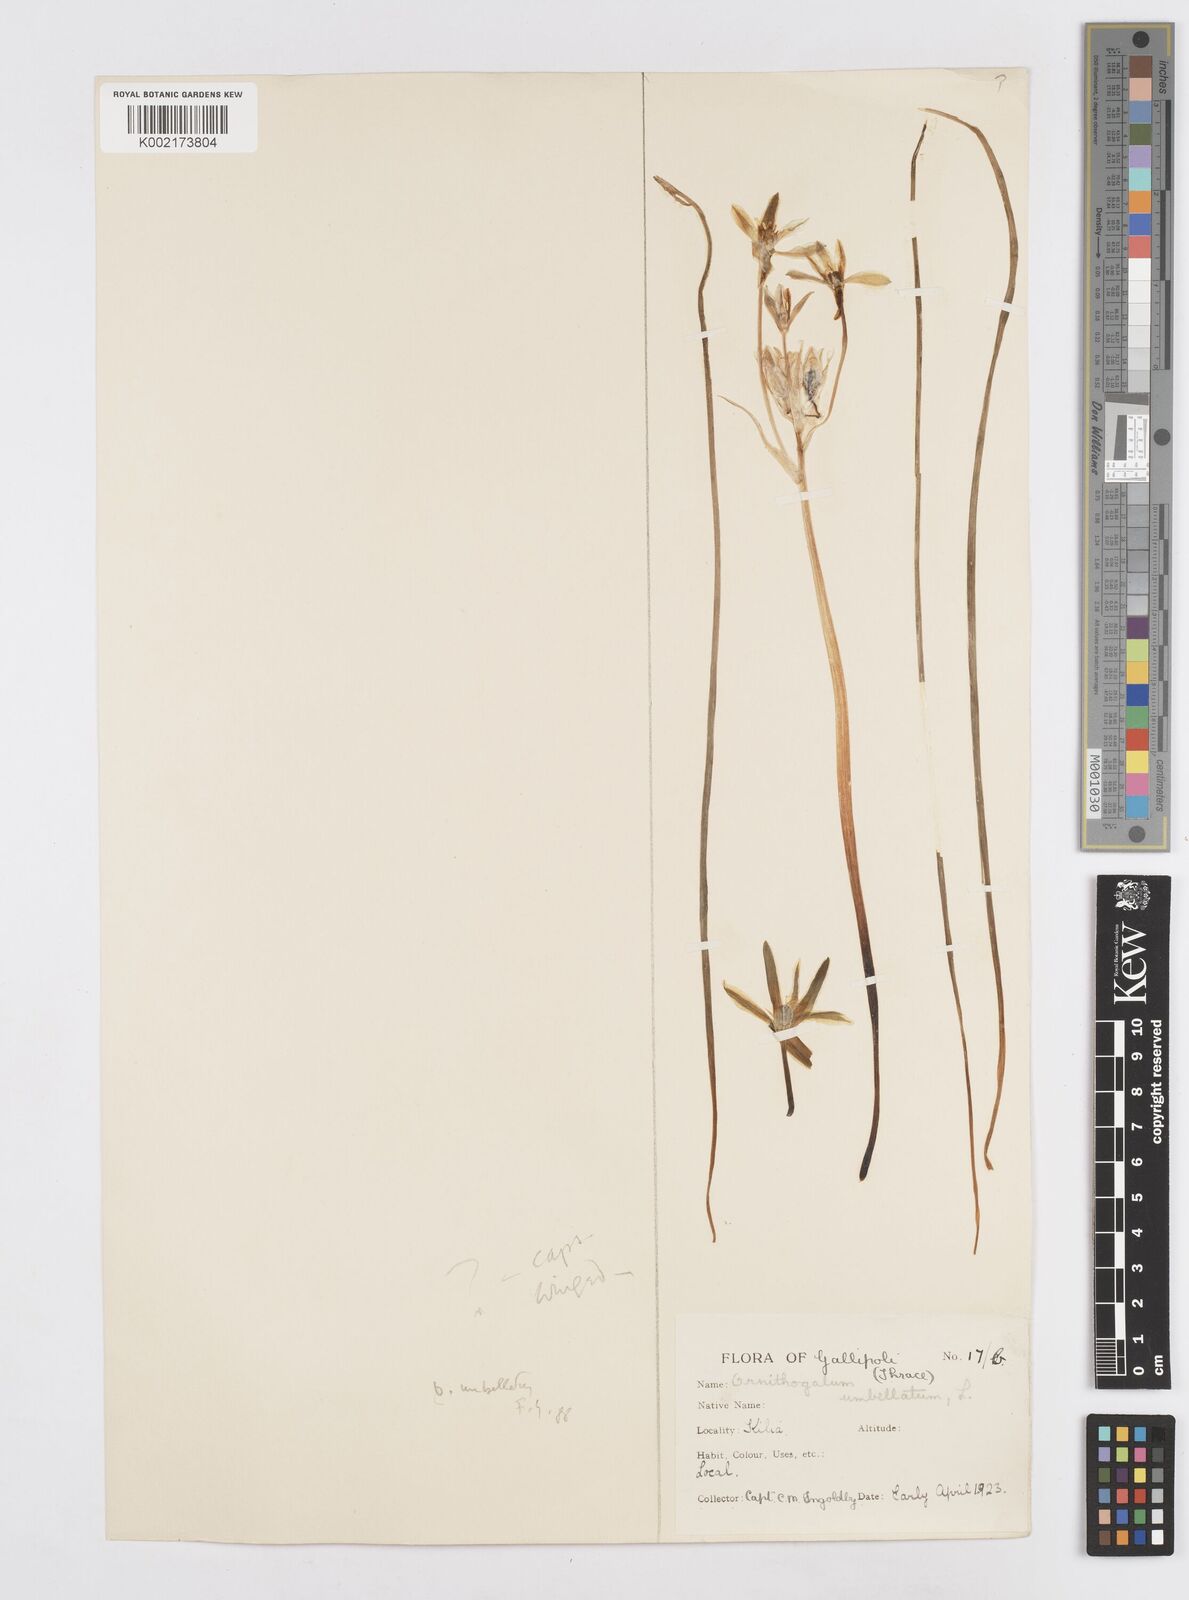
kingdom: Plantae
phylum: Tracheophyta
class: Liliopsida
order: Asparagales
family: Asparagaceae
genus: Ornithogalum
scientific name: Ornithogalum umbellatum
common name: Garden star-of-bethlehem
